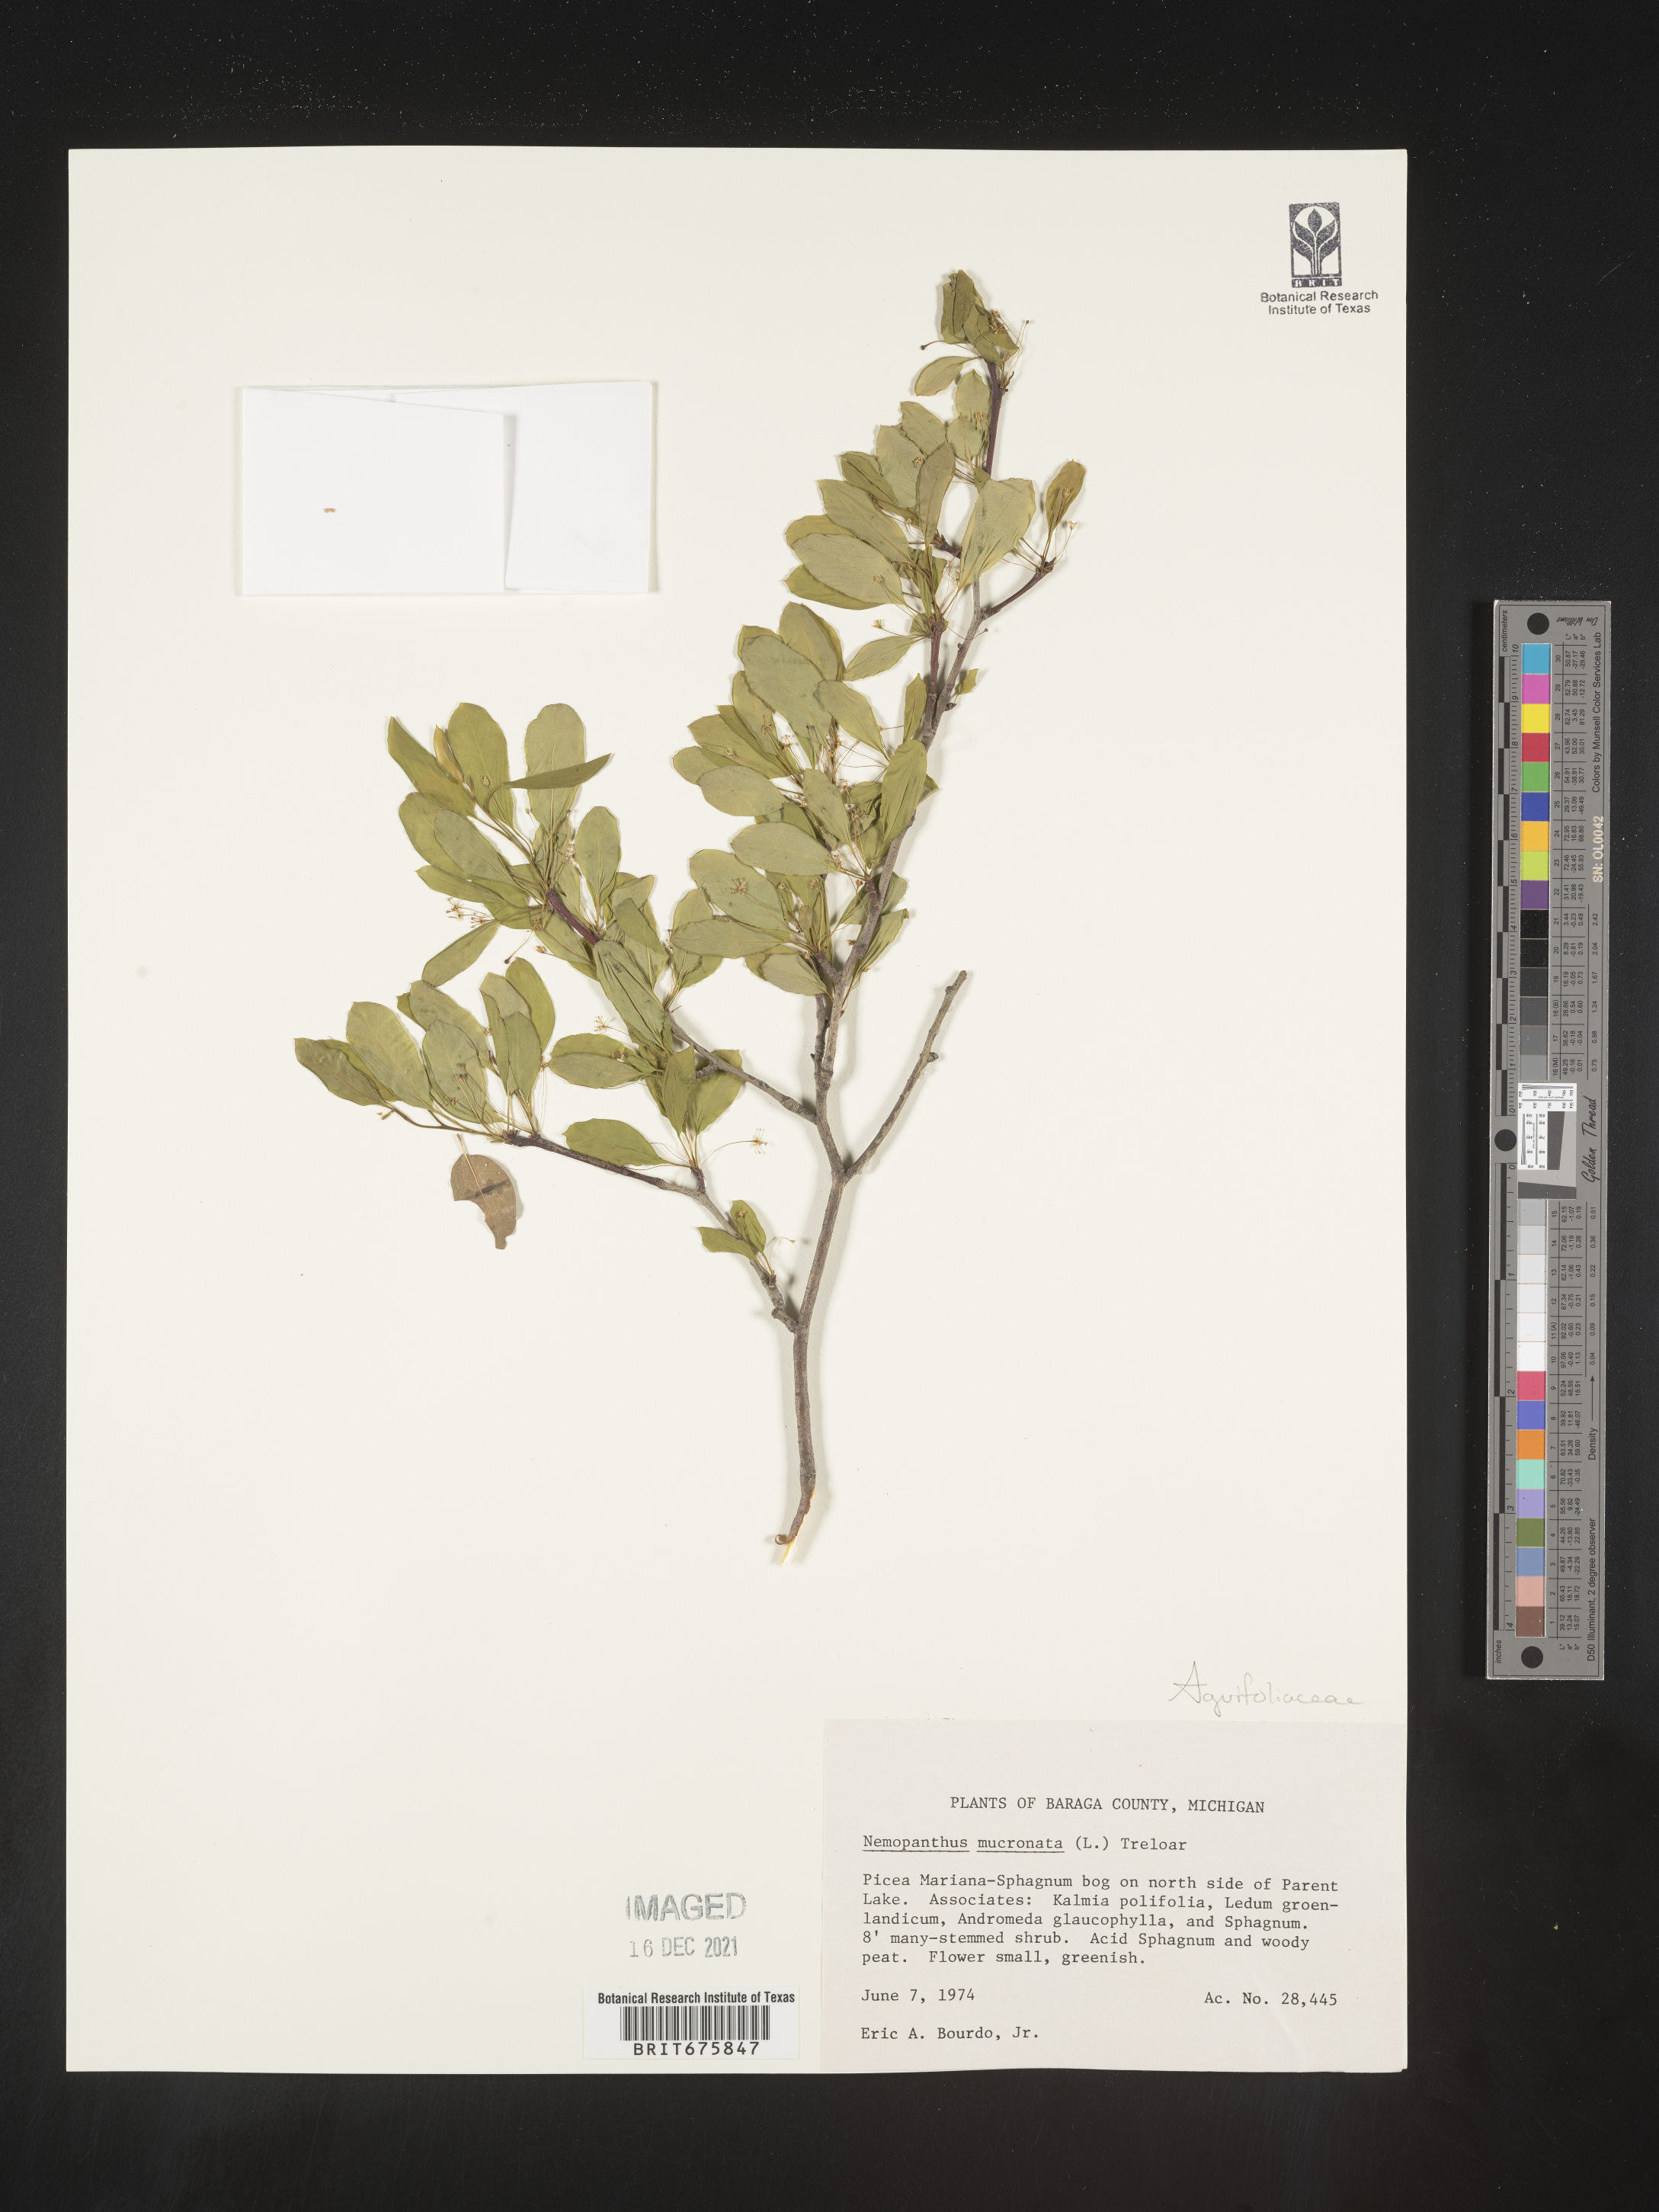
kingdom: Plantae
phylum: Tracheophyta
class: Magnoliopsida
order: Aquifoliales
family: Aquifoliaceae
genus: Ilex
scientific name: Ilex mucronata
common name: Catberry
